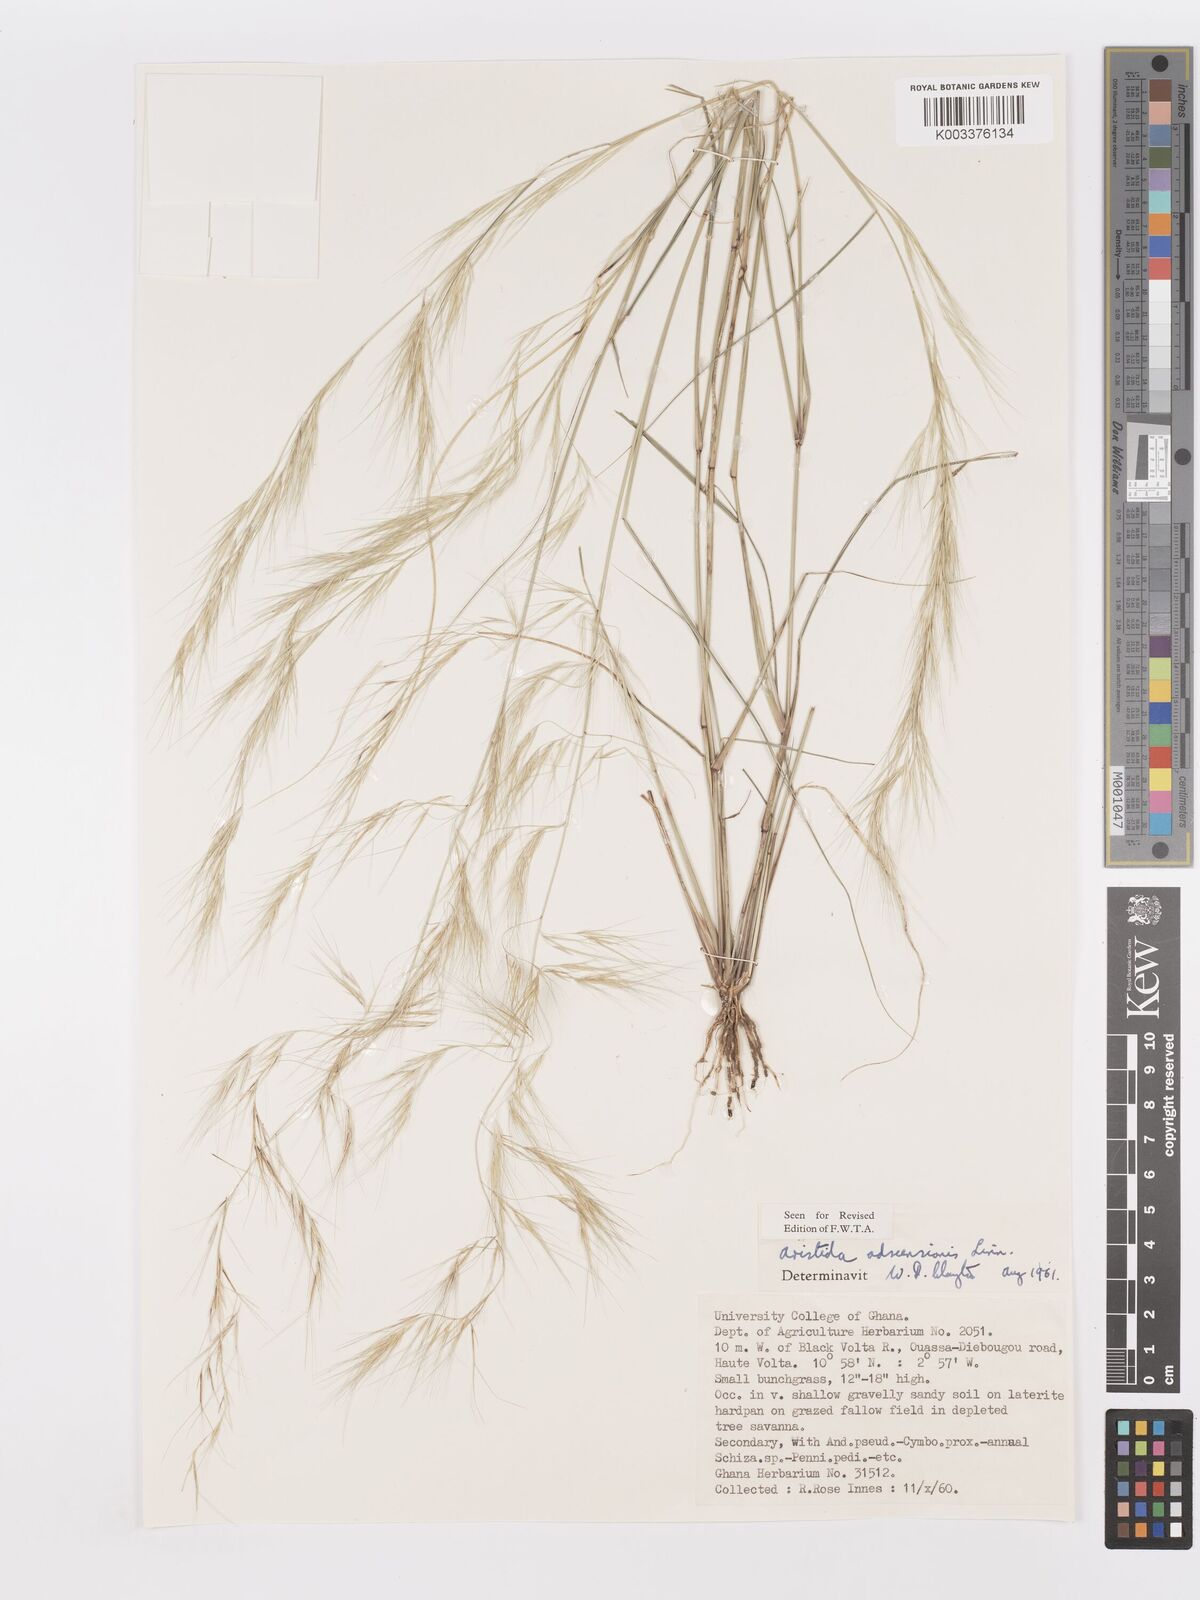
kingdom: Plantae
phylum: Tracheophyta
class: Liliopsida
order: Poales
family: Poaceae
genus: Aristida
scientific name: Aristida adscensionis
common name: Sixweeks threeawn
